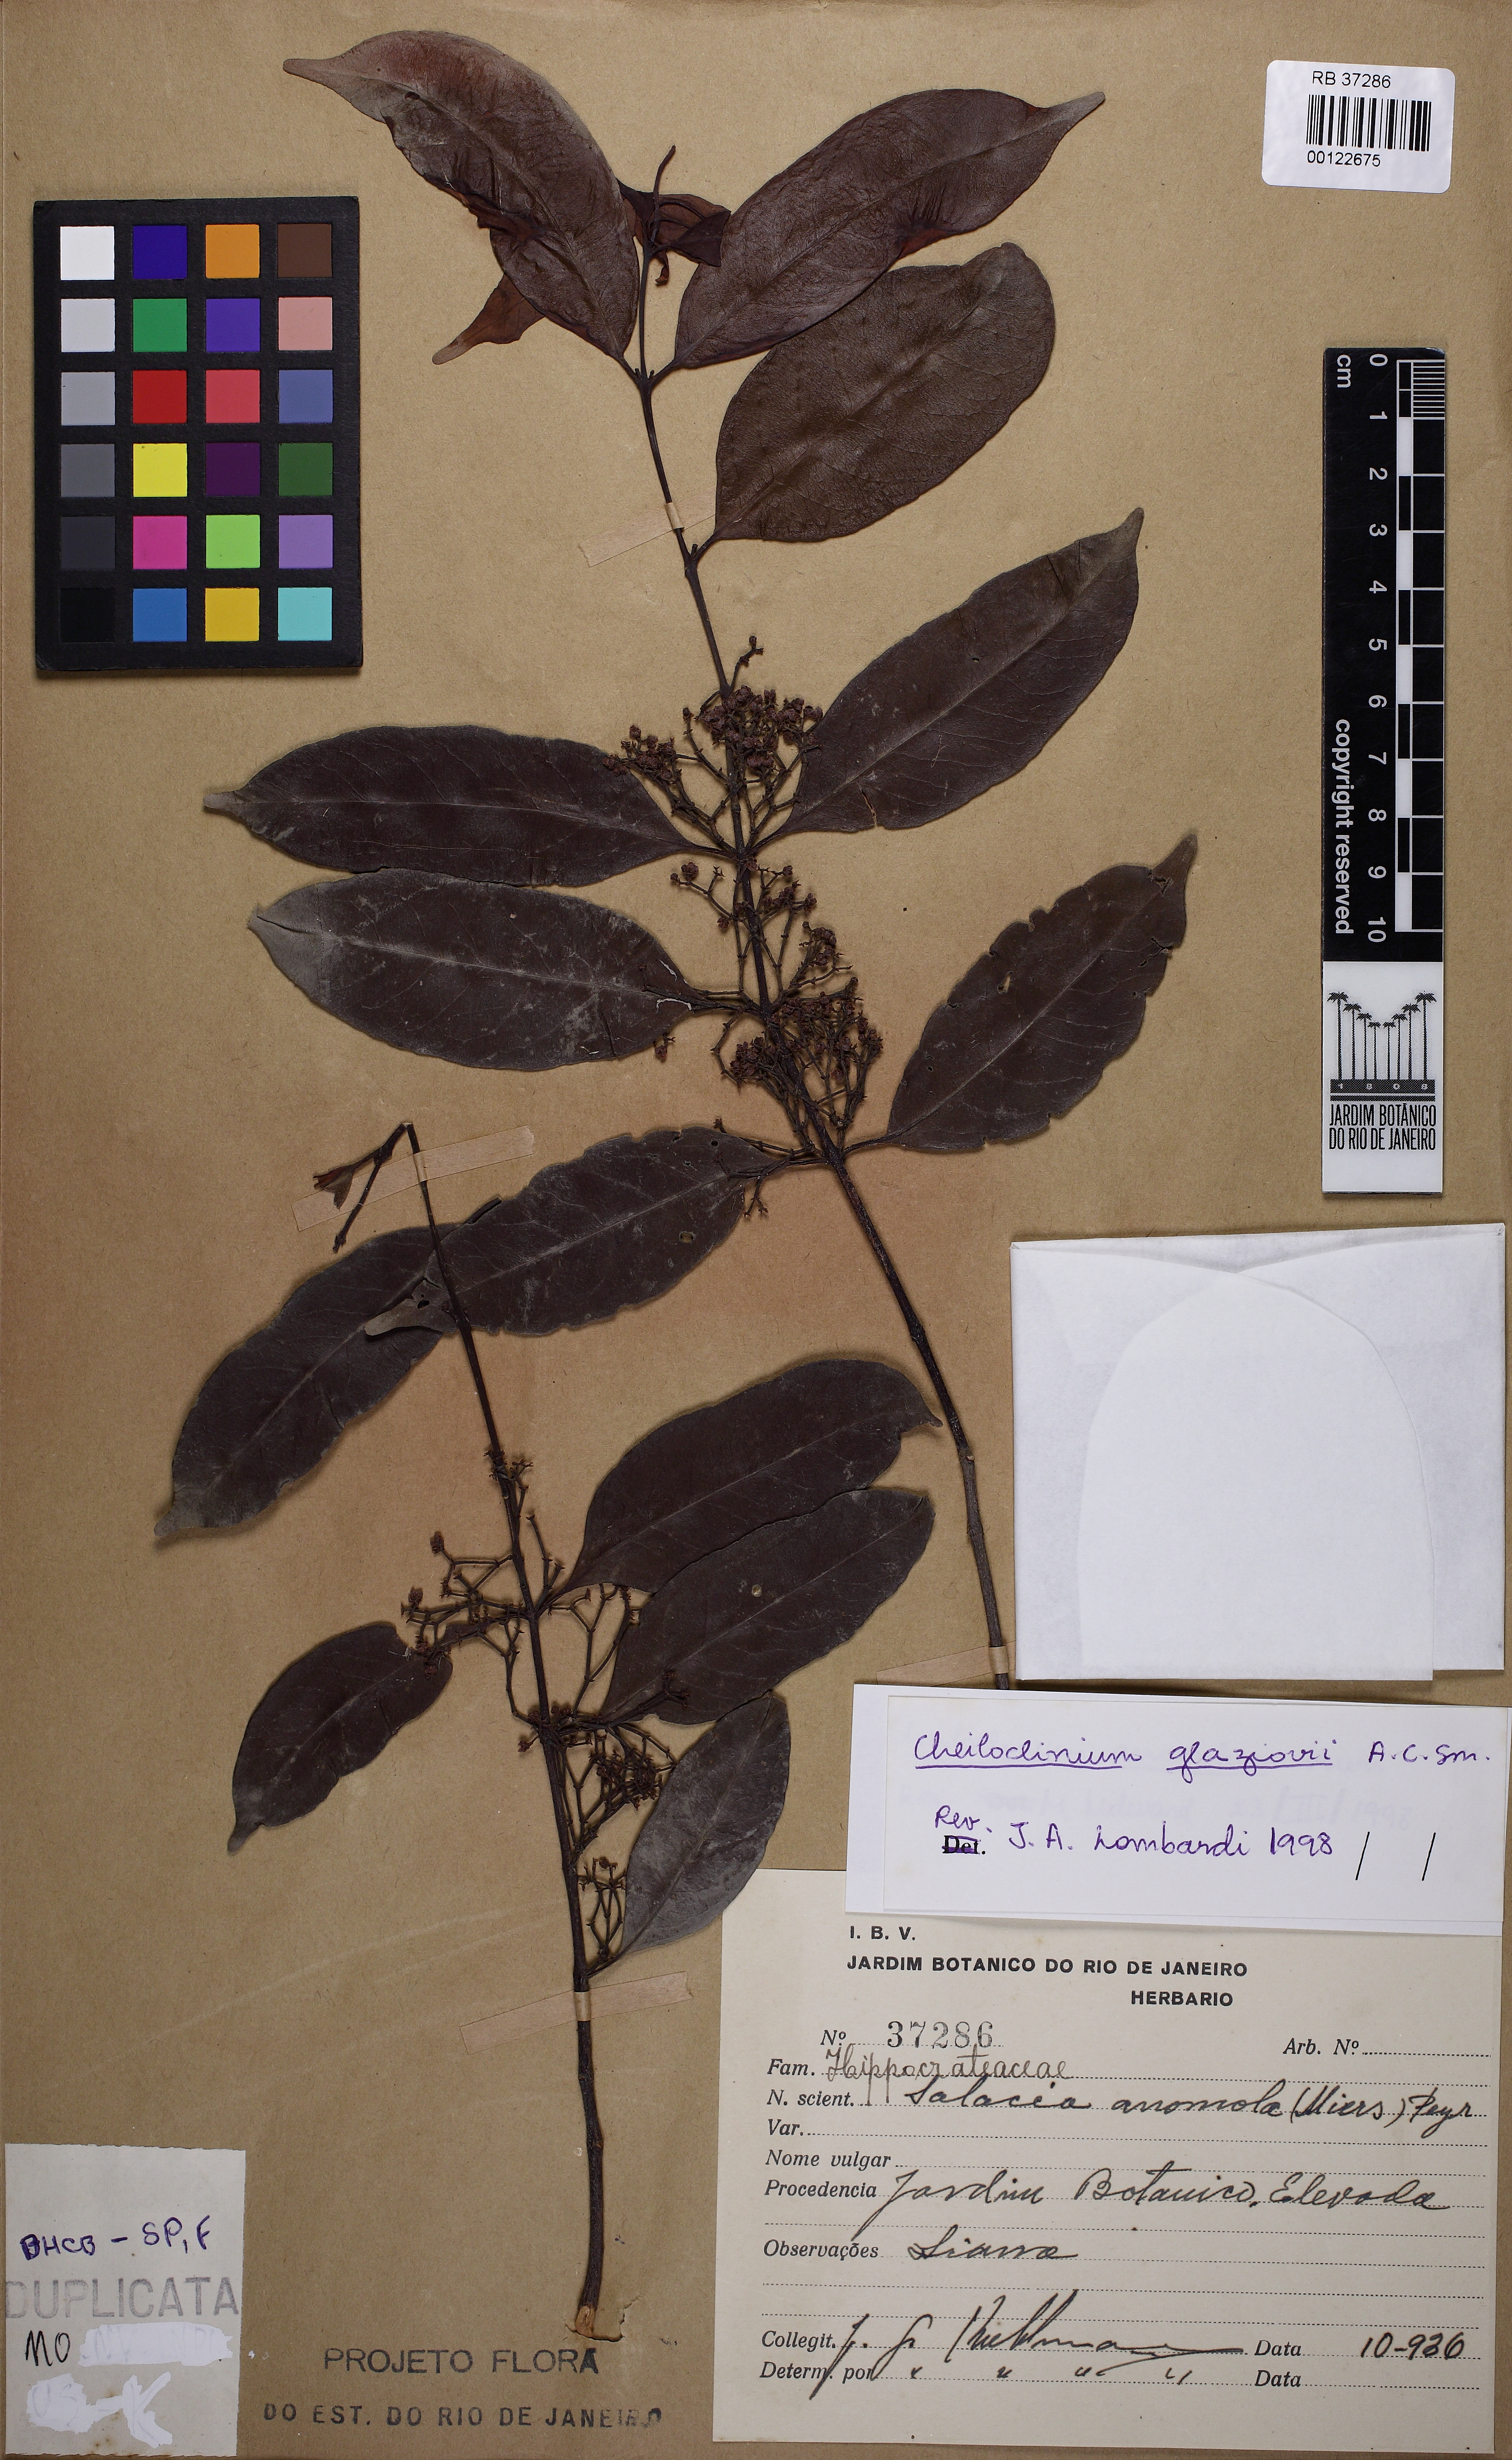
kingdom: Plantae
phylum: Tracheophyta
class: Magnoliopsida
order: Celastrales
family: Celastraceae
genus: Cheiloclinium
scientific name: Cheiloclinium anomalum
